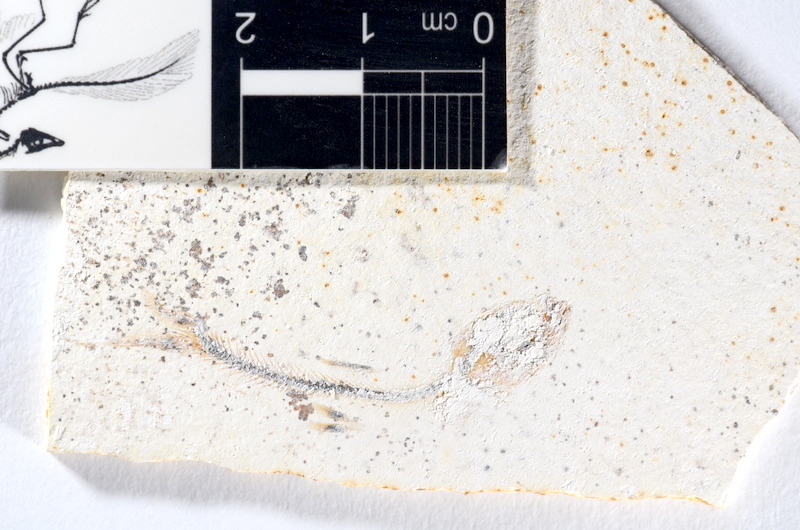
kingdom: Animalia
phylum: Chordata
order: Salmoniformes
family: Orthogonikleithridae
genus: Orthogonikleithrus
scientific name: Orthogonikleithrus hoelli
